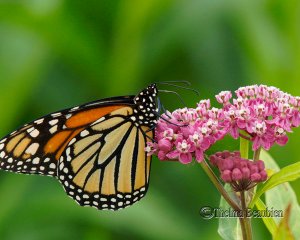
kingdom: Animalia
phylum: Arthropoda
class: Insecta
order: Lepidoptera
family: Nymphalidae
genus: Danaus
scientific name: Danaus plexippus
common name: Monarch
